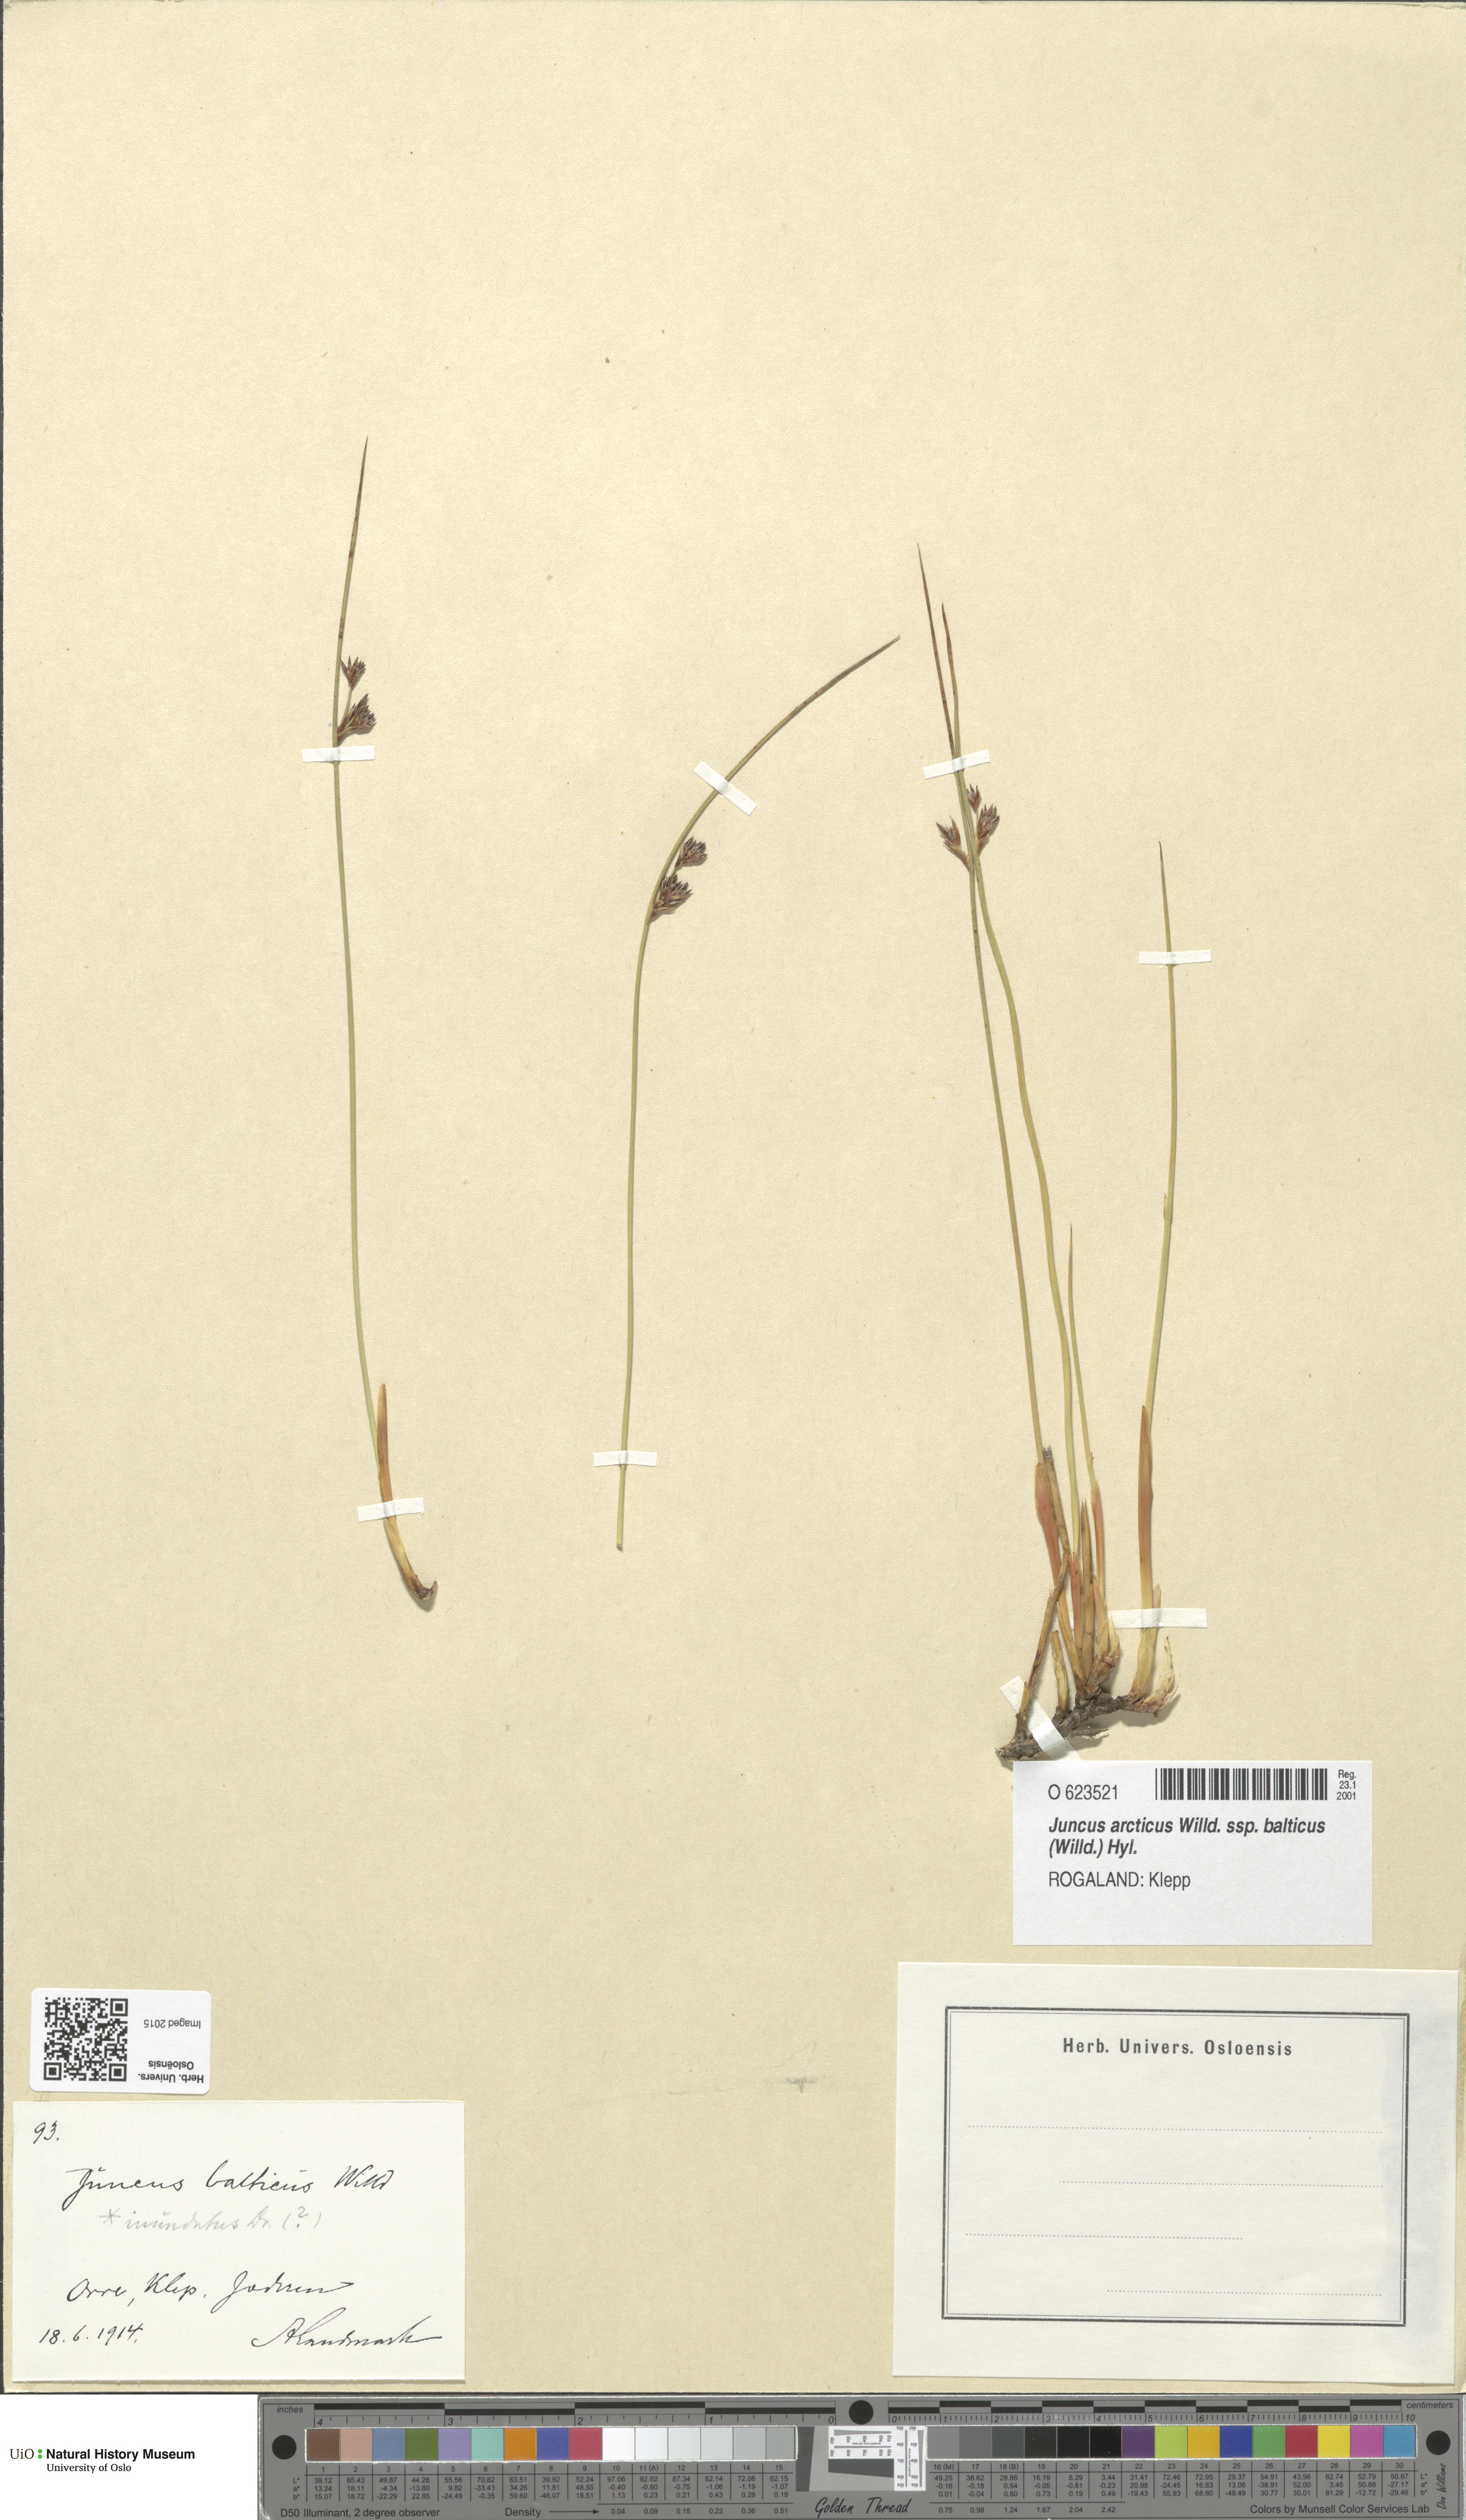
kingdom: Plantae
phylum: Tracheophyta
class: Liliopsida
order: Poales
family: Juncaceae
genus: Juncus
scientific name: Juncus balticus
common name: Baltic rush
